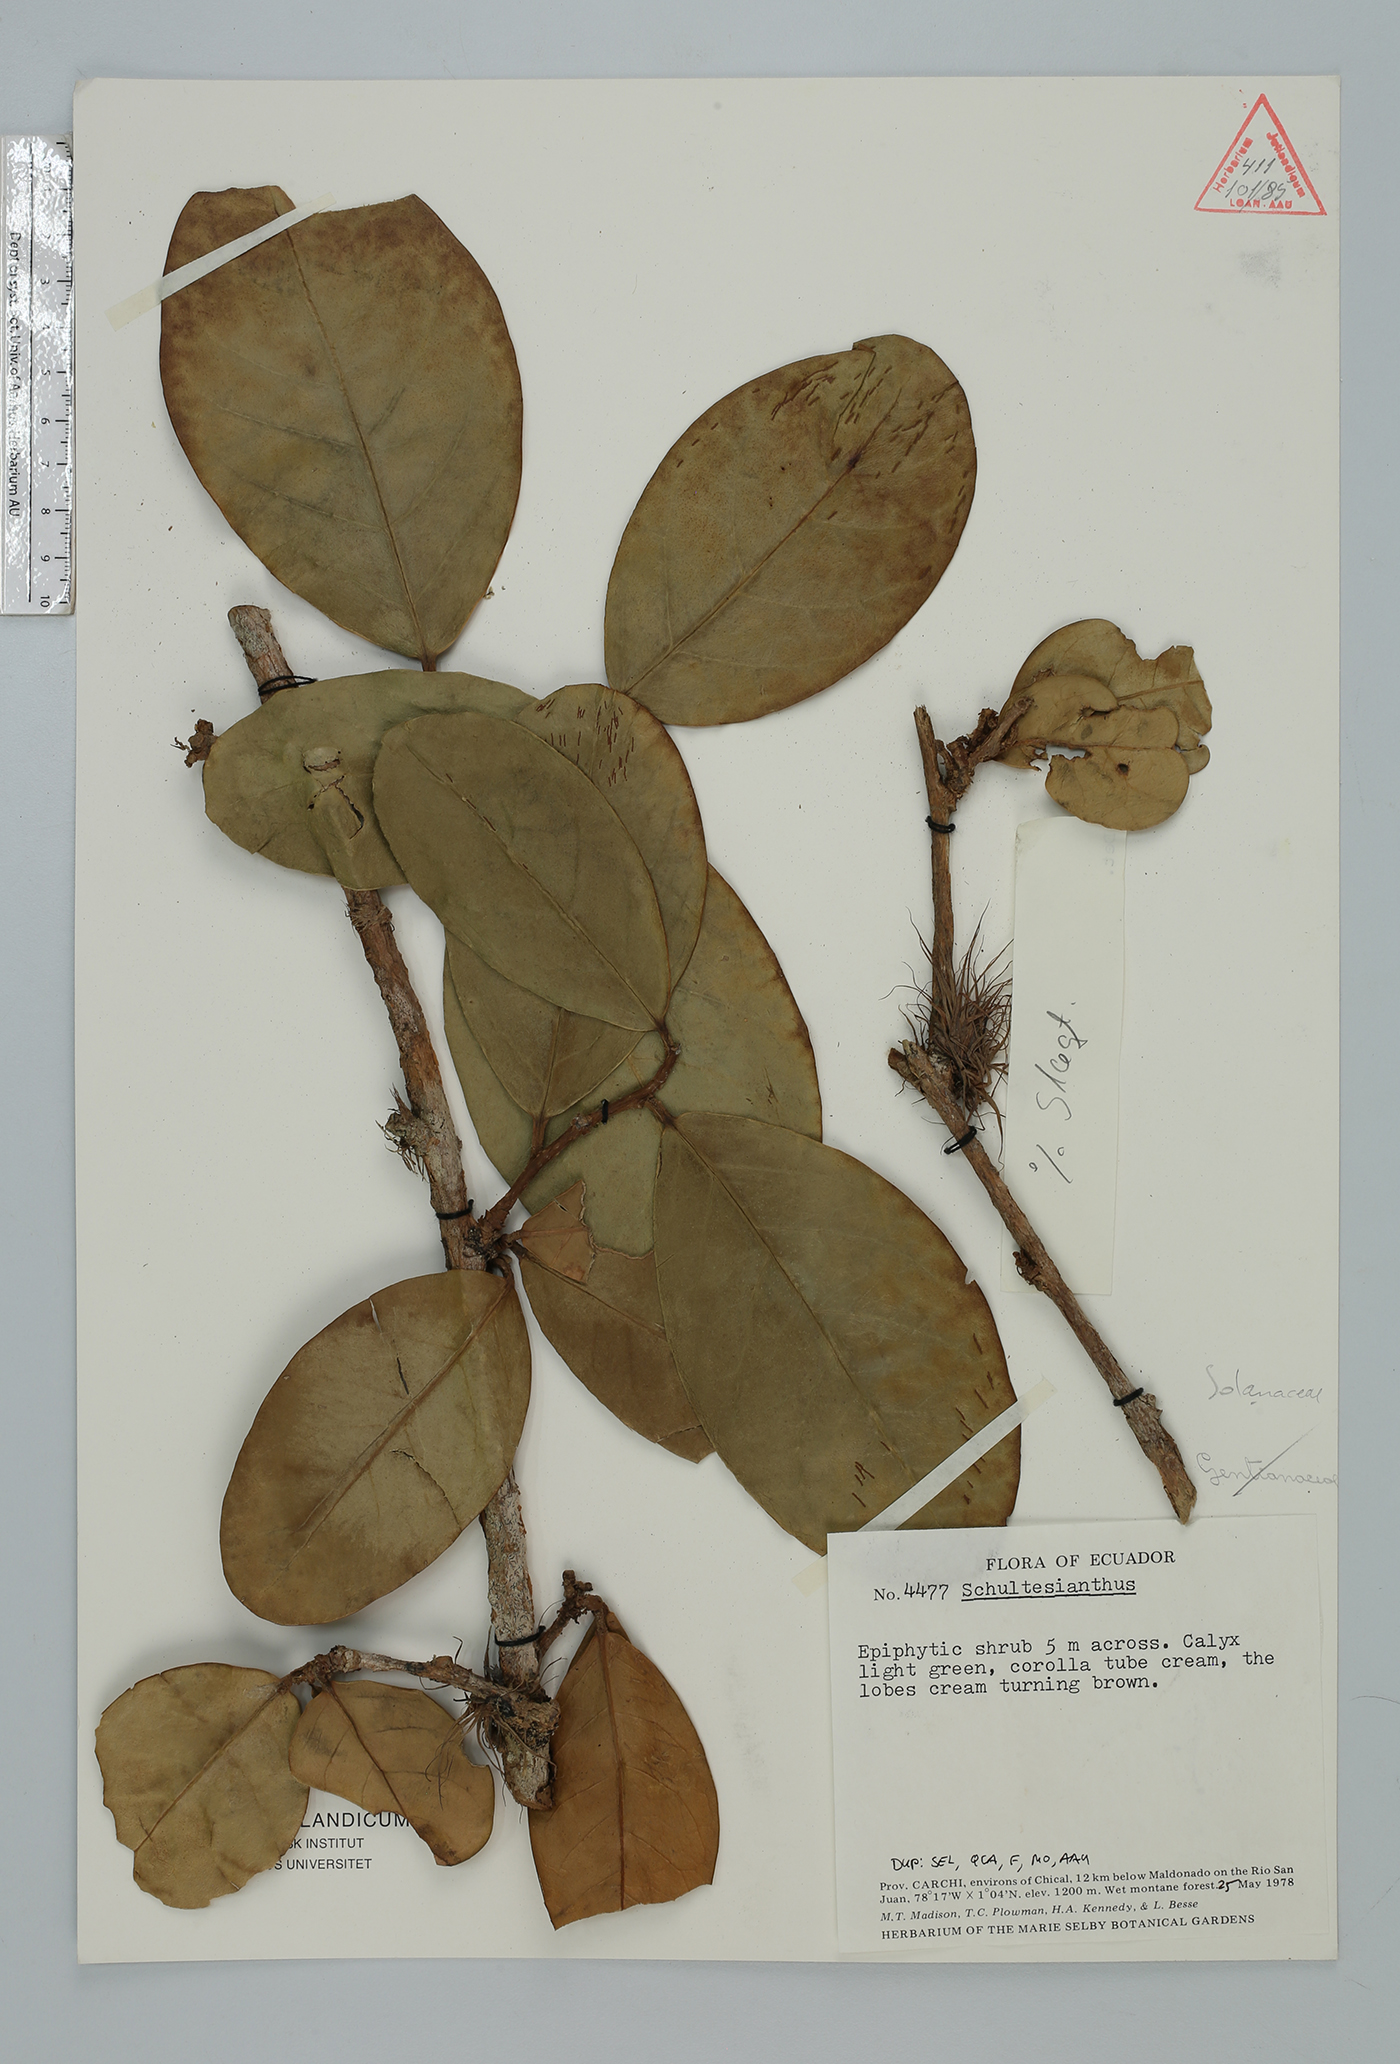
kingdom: Plantae
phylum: Tracheophyta
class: Magnoliopsida
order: Solanales
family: Solanaceae
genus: Schultesianthus
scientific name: Schultesianthus leucanthus
